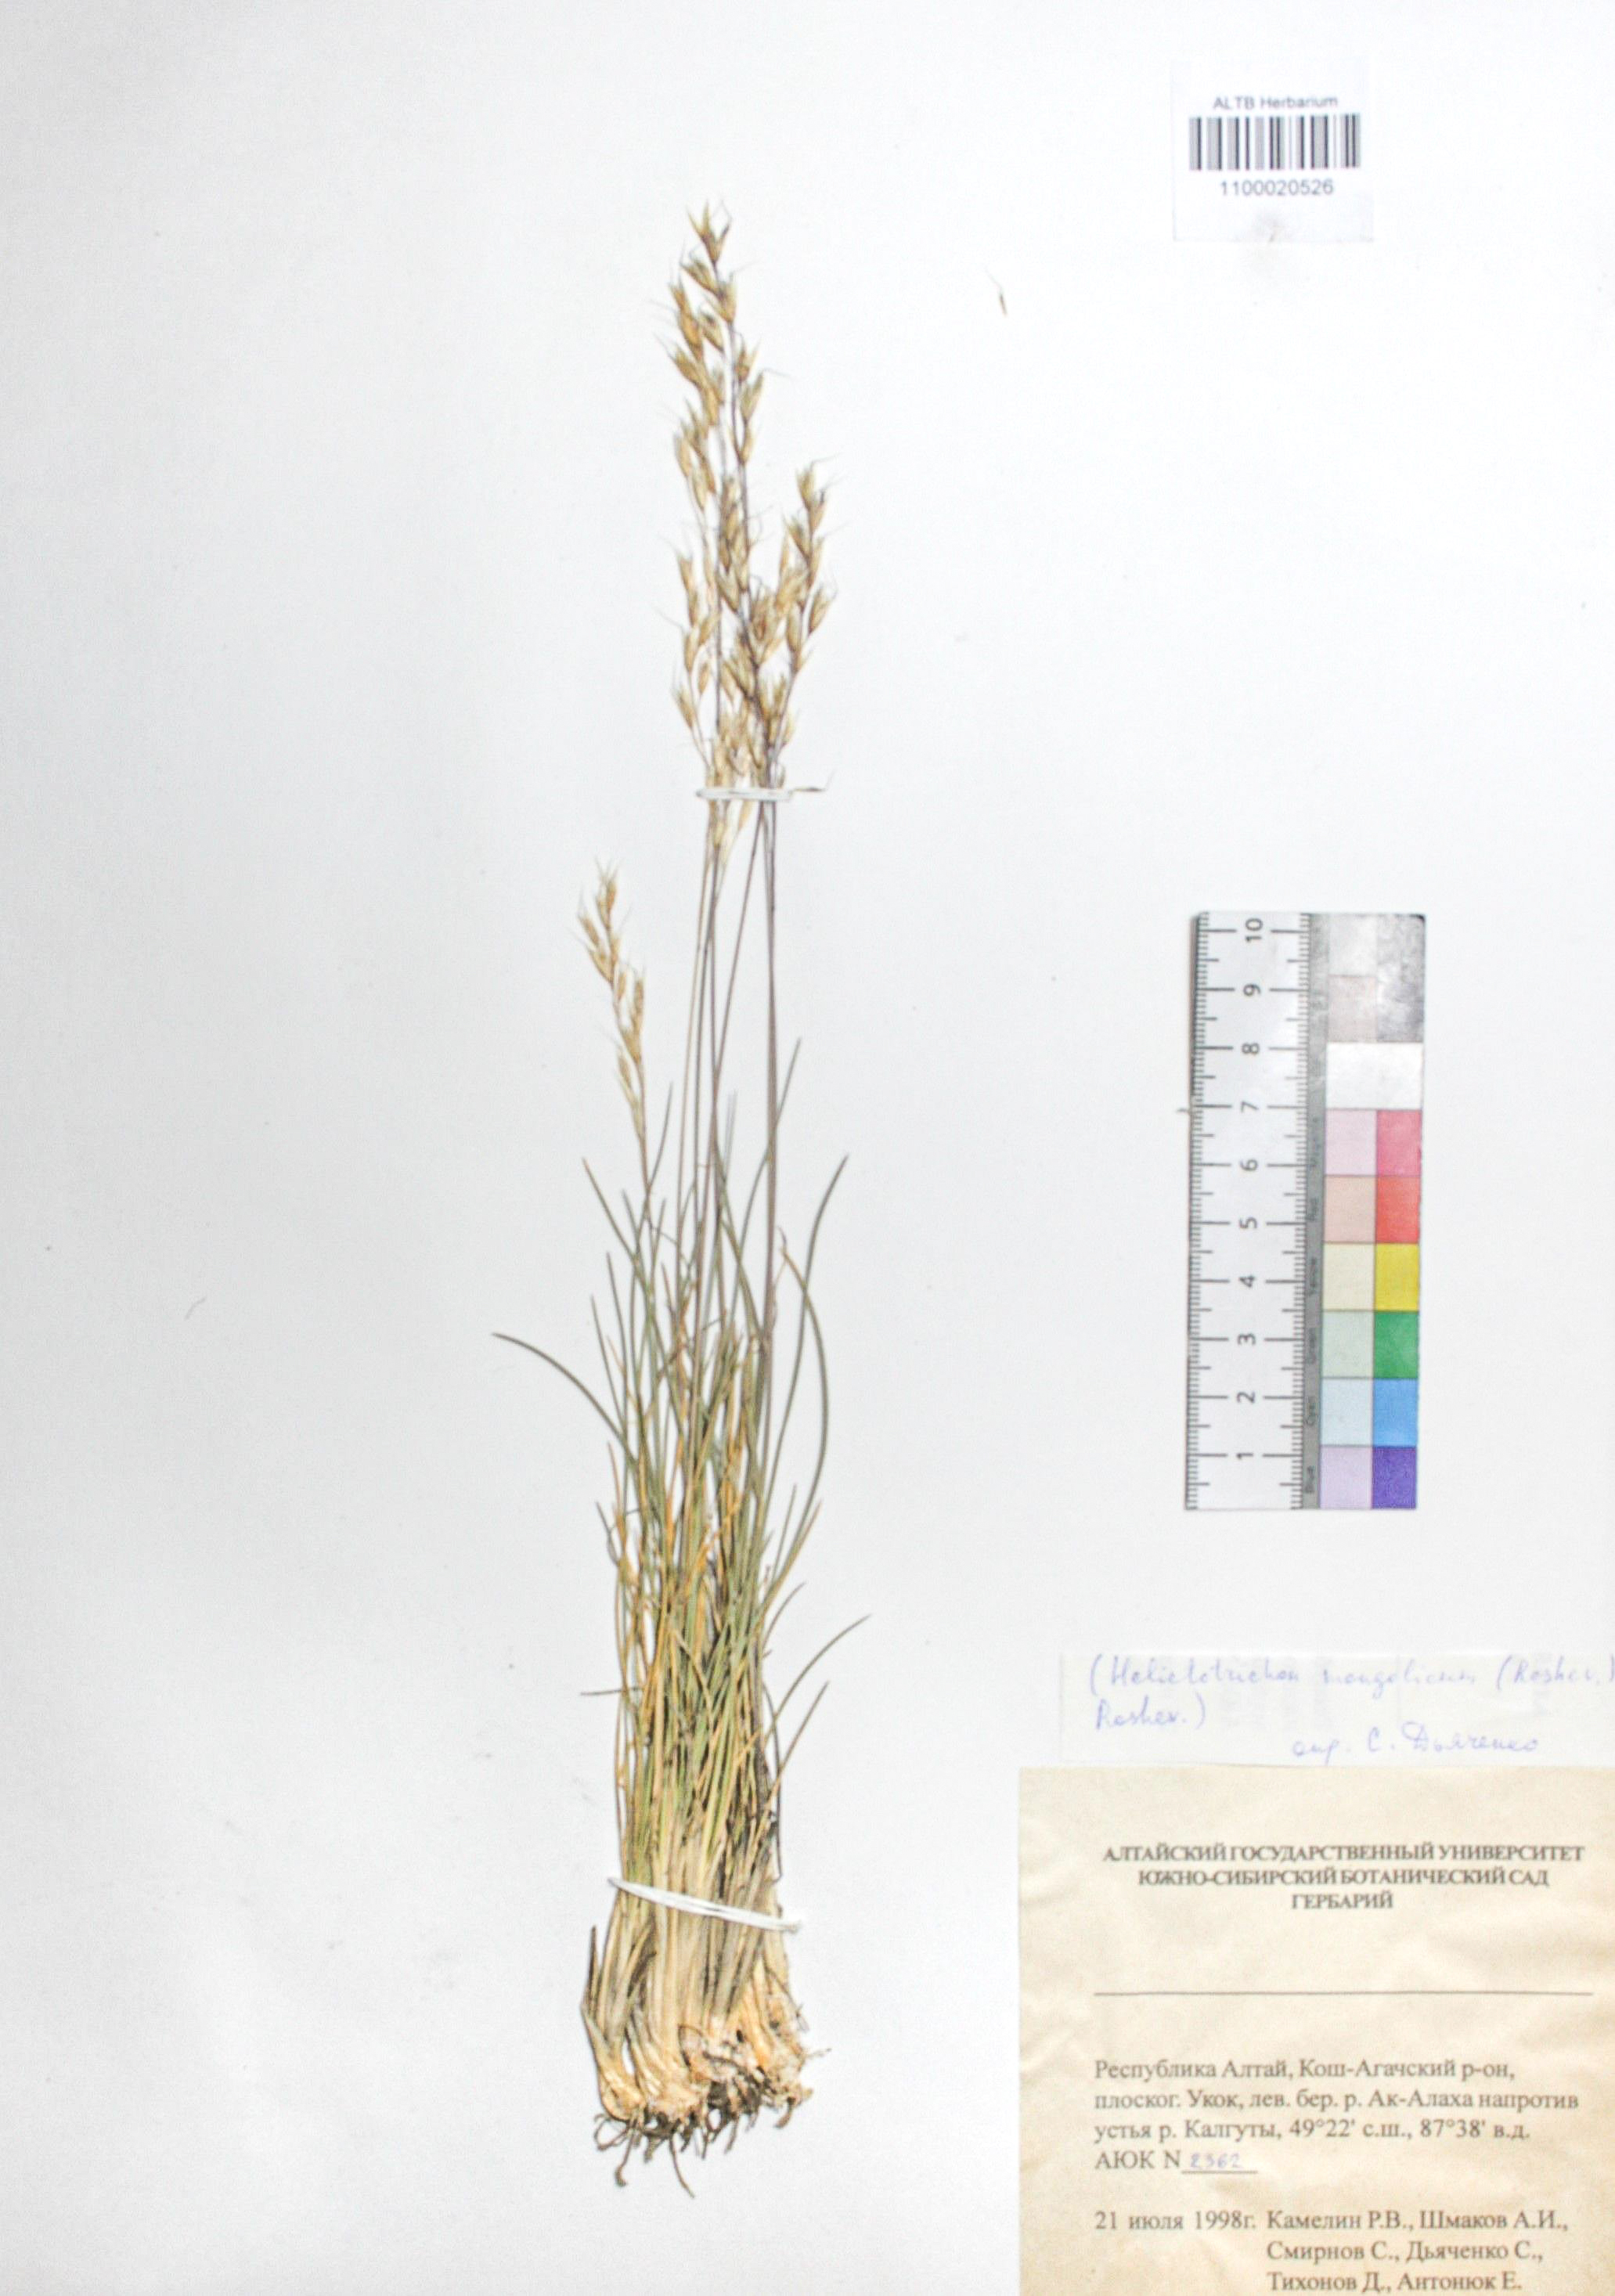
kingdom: Plantae
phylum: Tracheophyta
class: Liliopsida
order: Poales
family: Poaceae
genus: Helictotrichon
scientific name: Helictotrichon mongolicum
